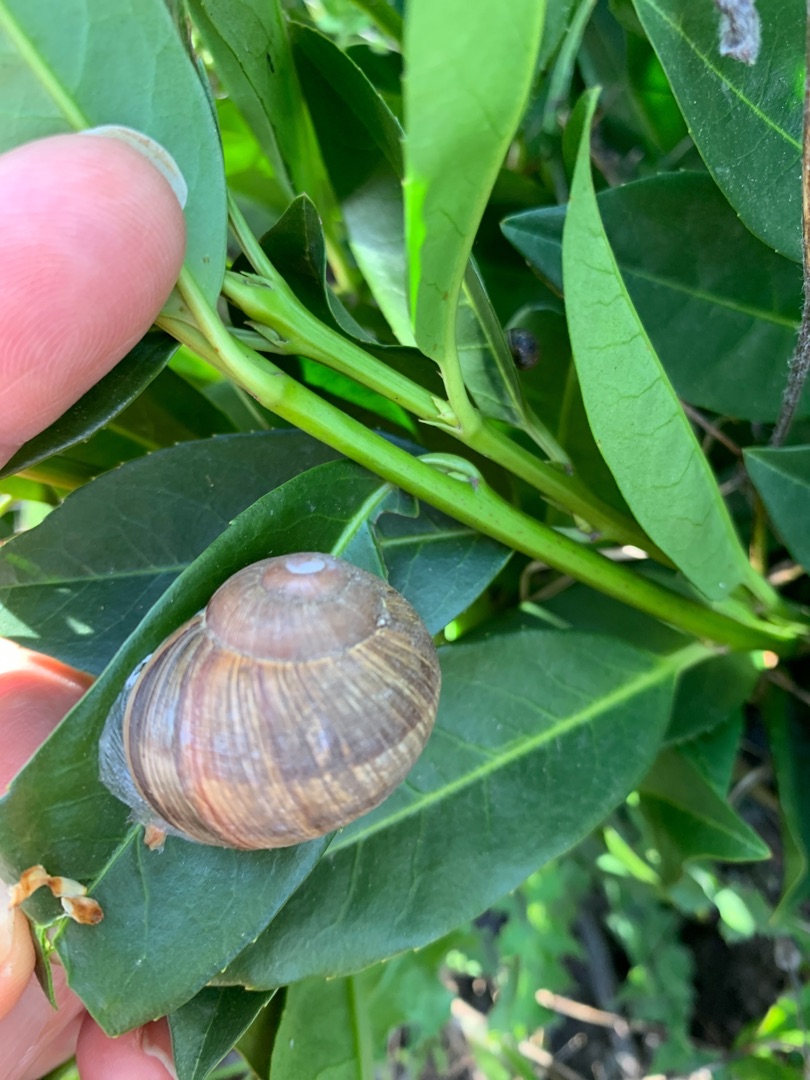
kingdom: Animalia
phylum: Mollusca
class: Gastropoda
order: Stylommatophora
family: Helicidae
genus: Helix
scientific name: Helix pomatia
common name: Vinbjergsnegl
